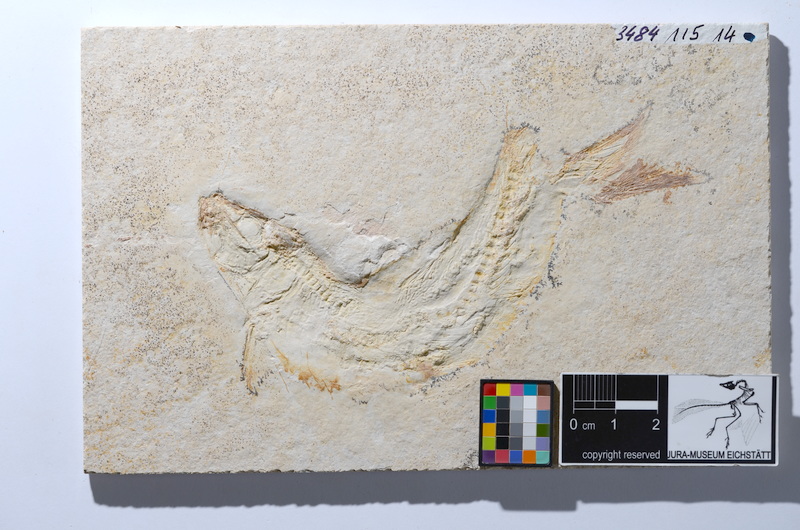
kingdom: Animalia
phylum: Chordata
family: Ascalaboidae
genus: Tharsis
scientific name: Tharsis dubius
